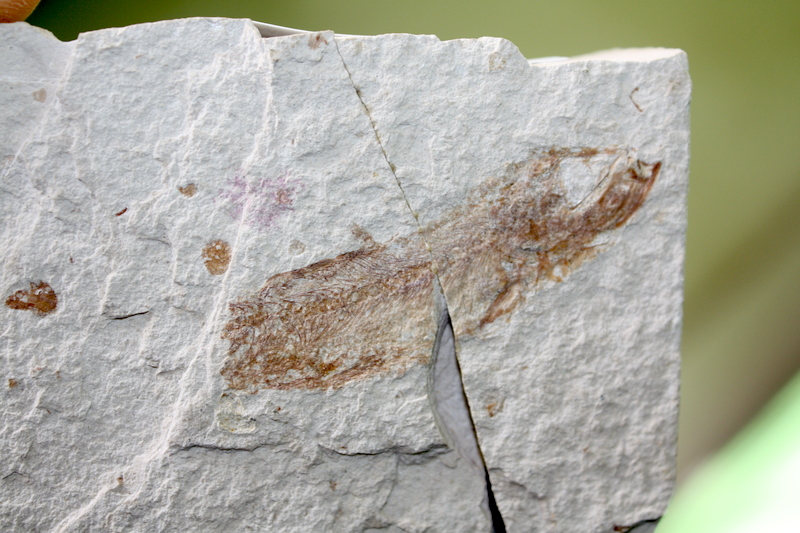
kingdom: Animalia
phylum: Chordata
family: Ascalaboidae
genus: Tharsis
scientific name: Tharsis dubius
